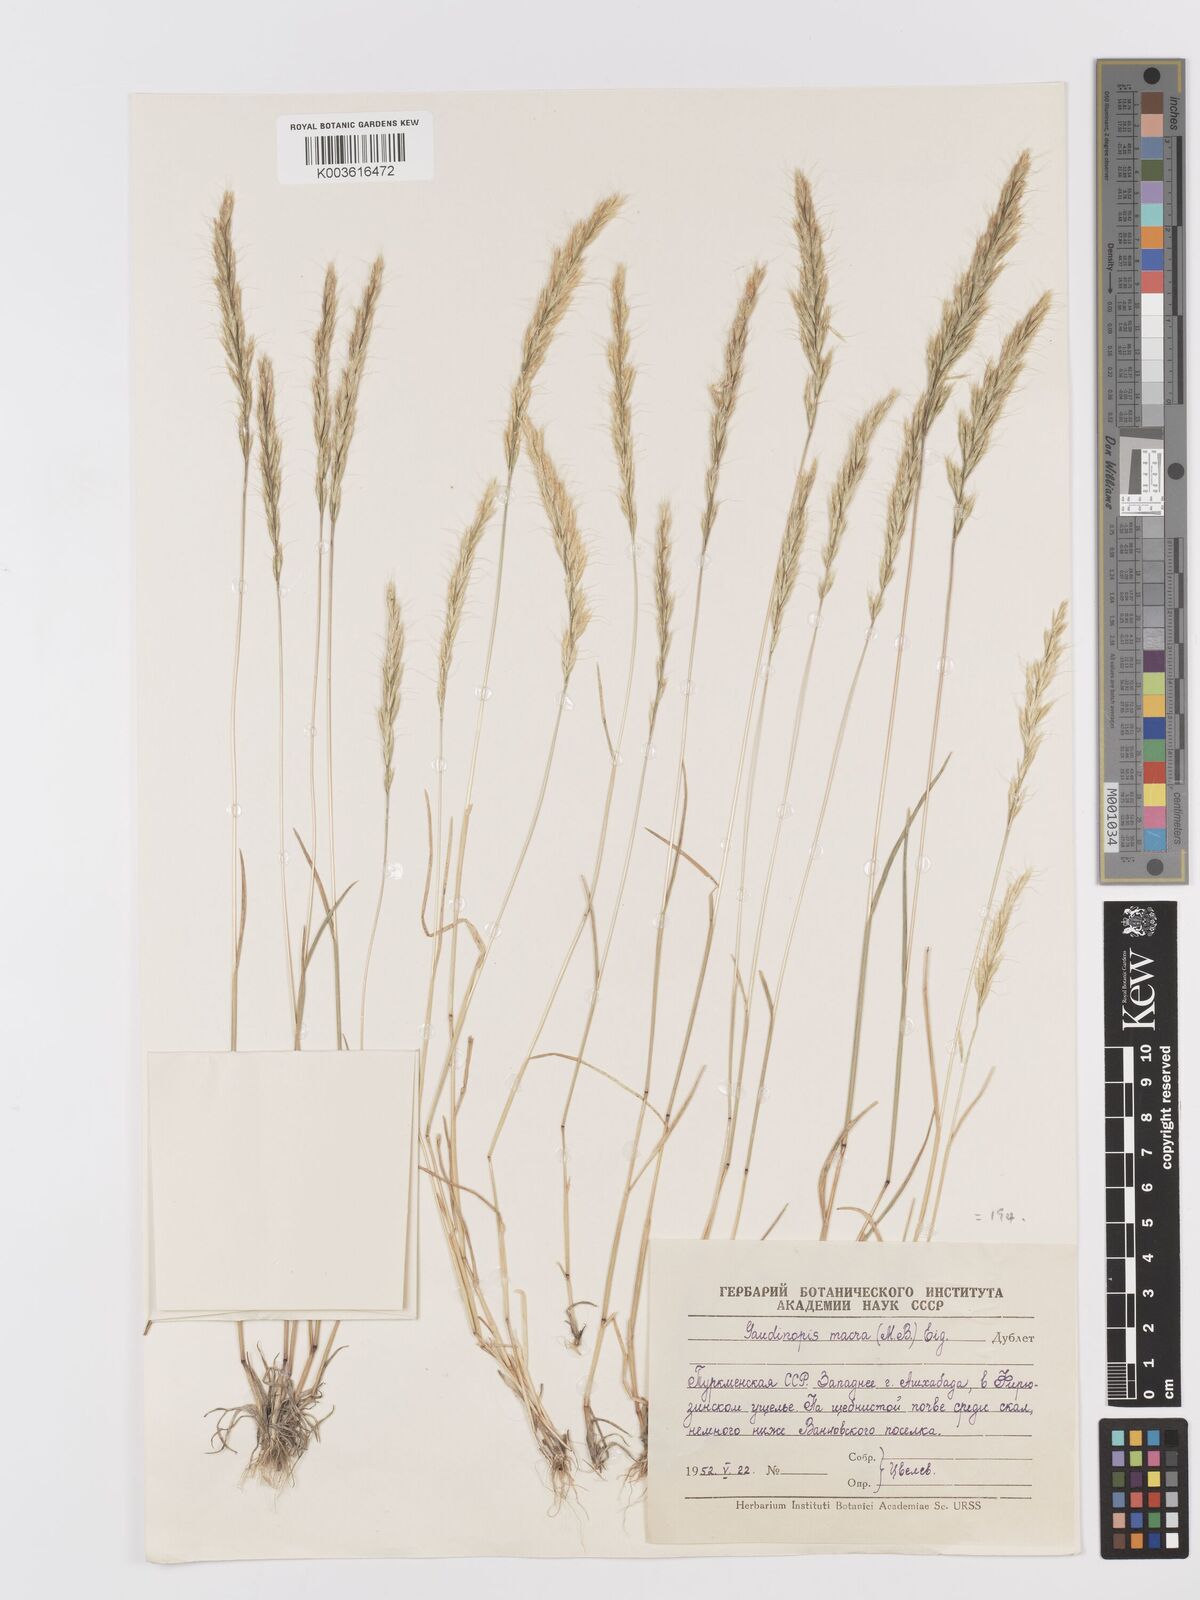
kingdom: Plantae
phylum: Tracheophyta
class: Liliopsida
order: Poales
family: Poaceae
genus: Ventenata
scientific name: Ventenata macra
